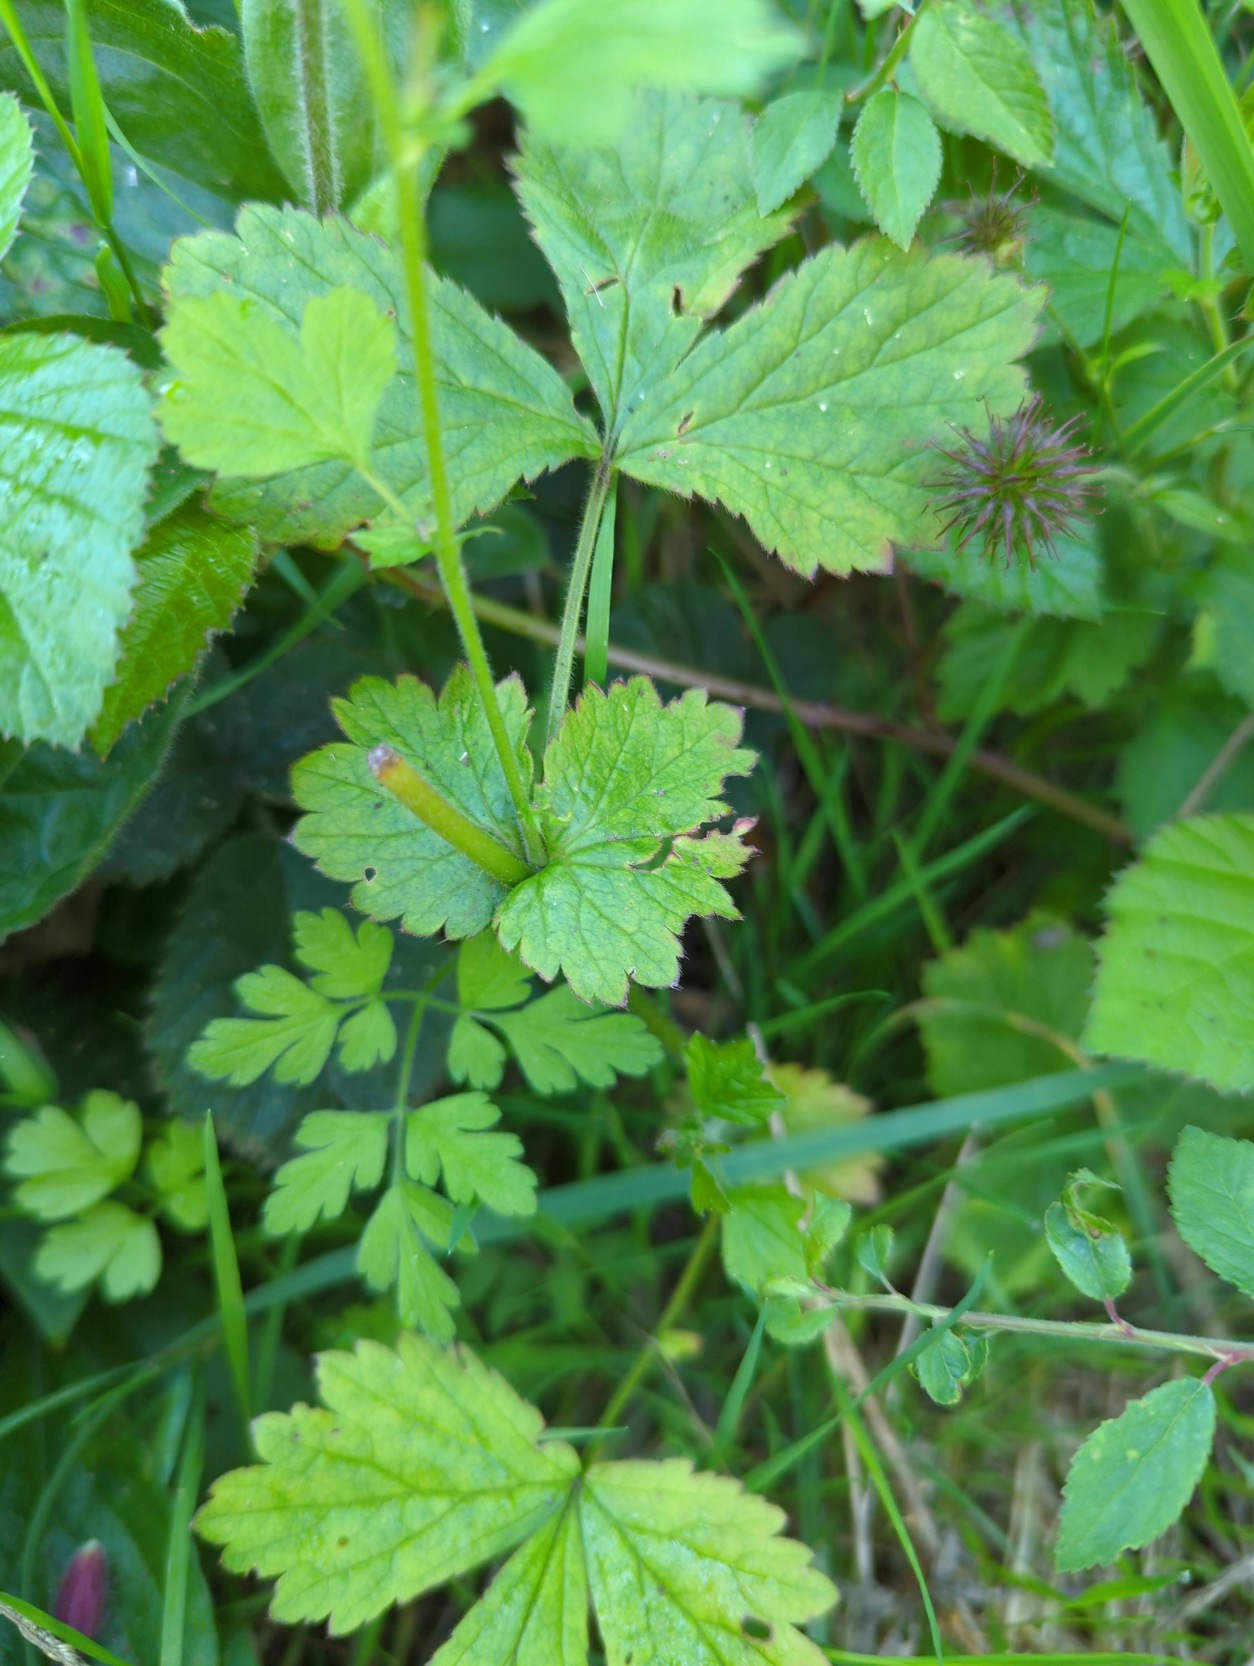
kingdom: Plantae
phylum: Tracheophyta
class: Magnoliopsida
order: Caryophyllales
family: Caryophyllaceae
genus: Silene
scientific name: Silene dioica
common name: Dagpragtstjerne
